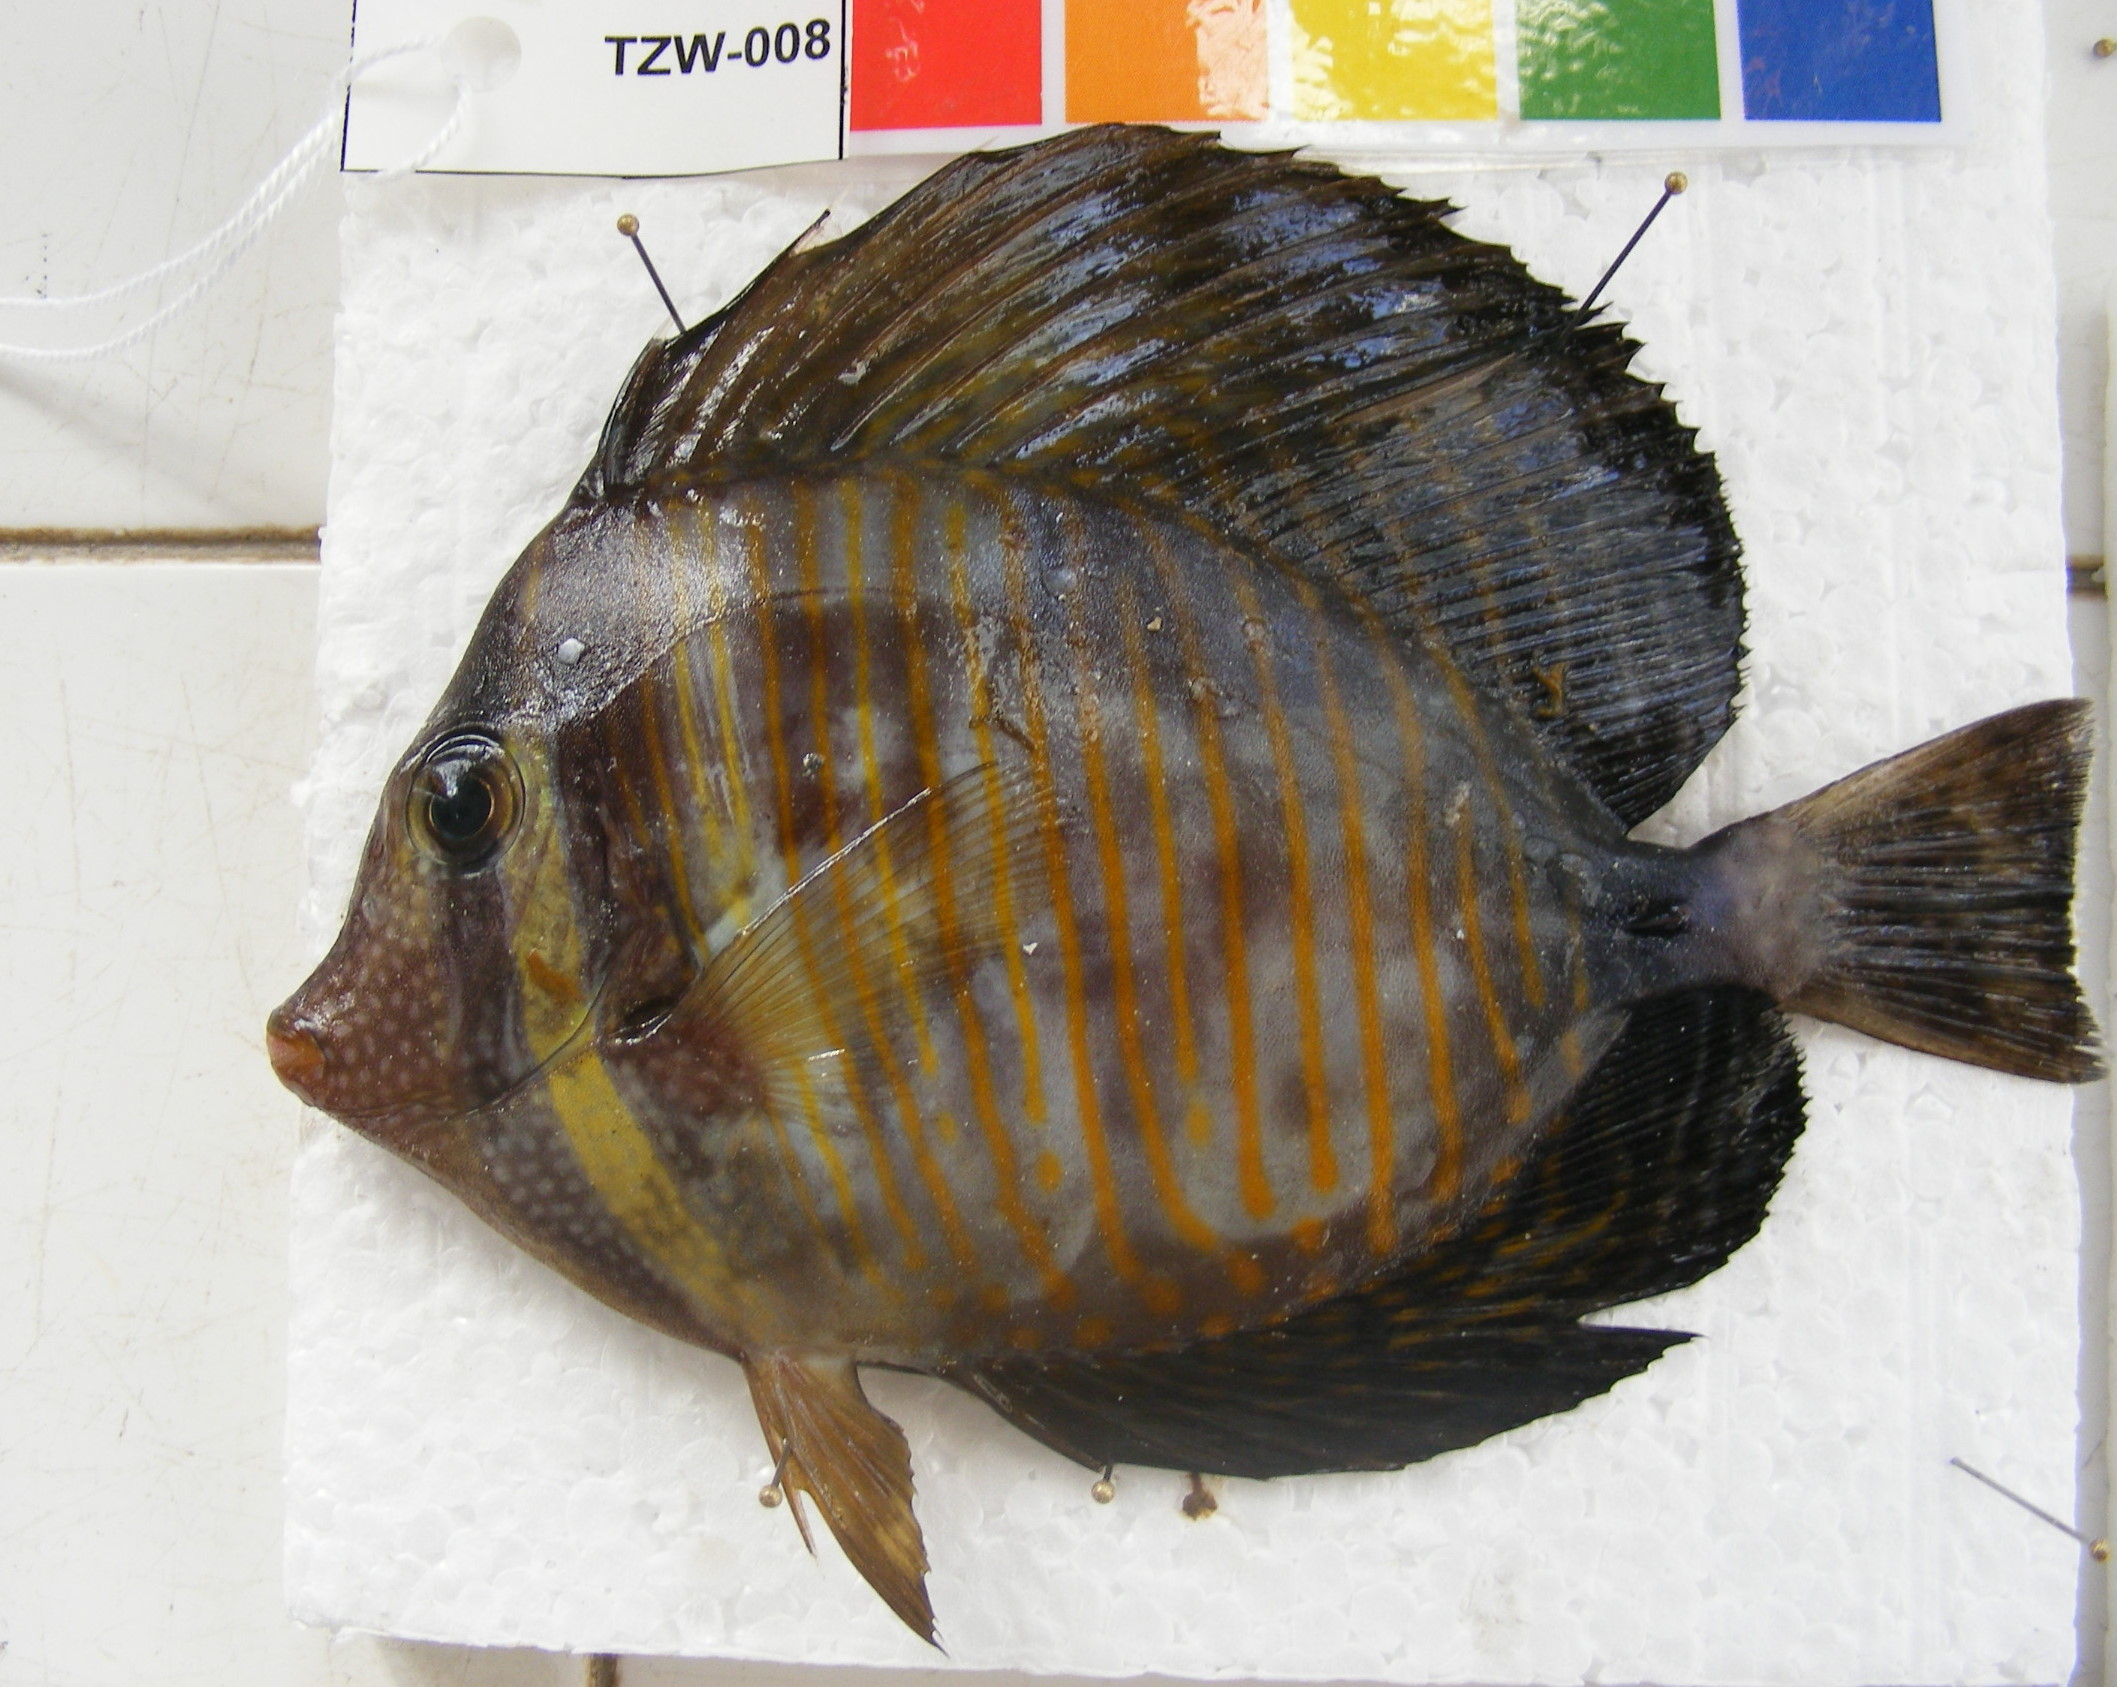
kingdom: Animalia
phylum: Chordata
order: Perciformes
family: Acanthuridae
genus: Zebrasoma
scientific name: Zebrasoma desjardinii
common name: Desjardin's sailfin tang
